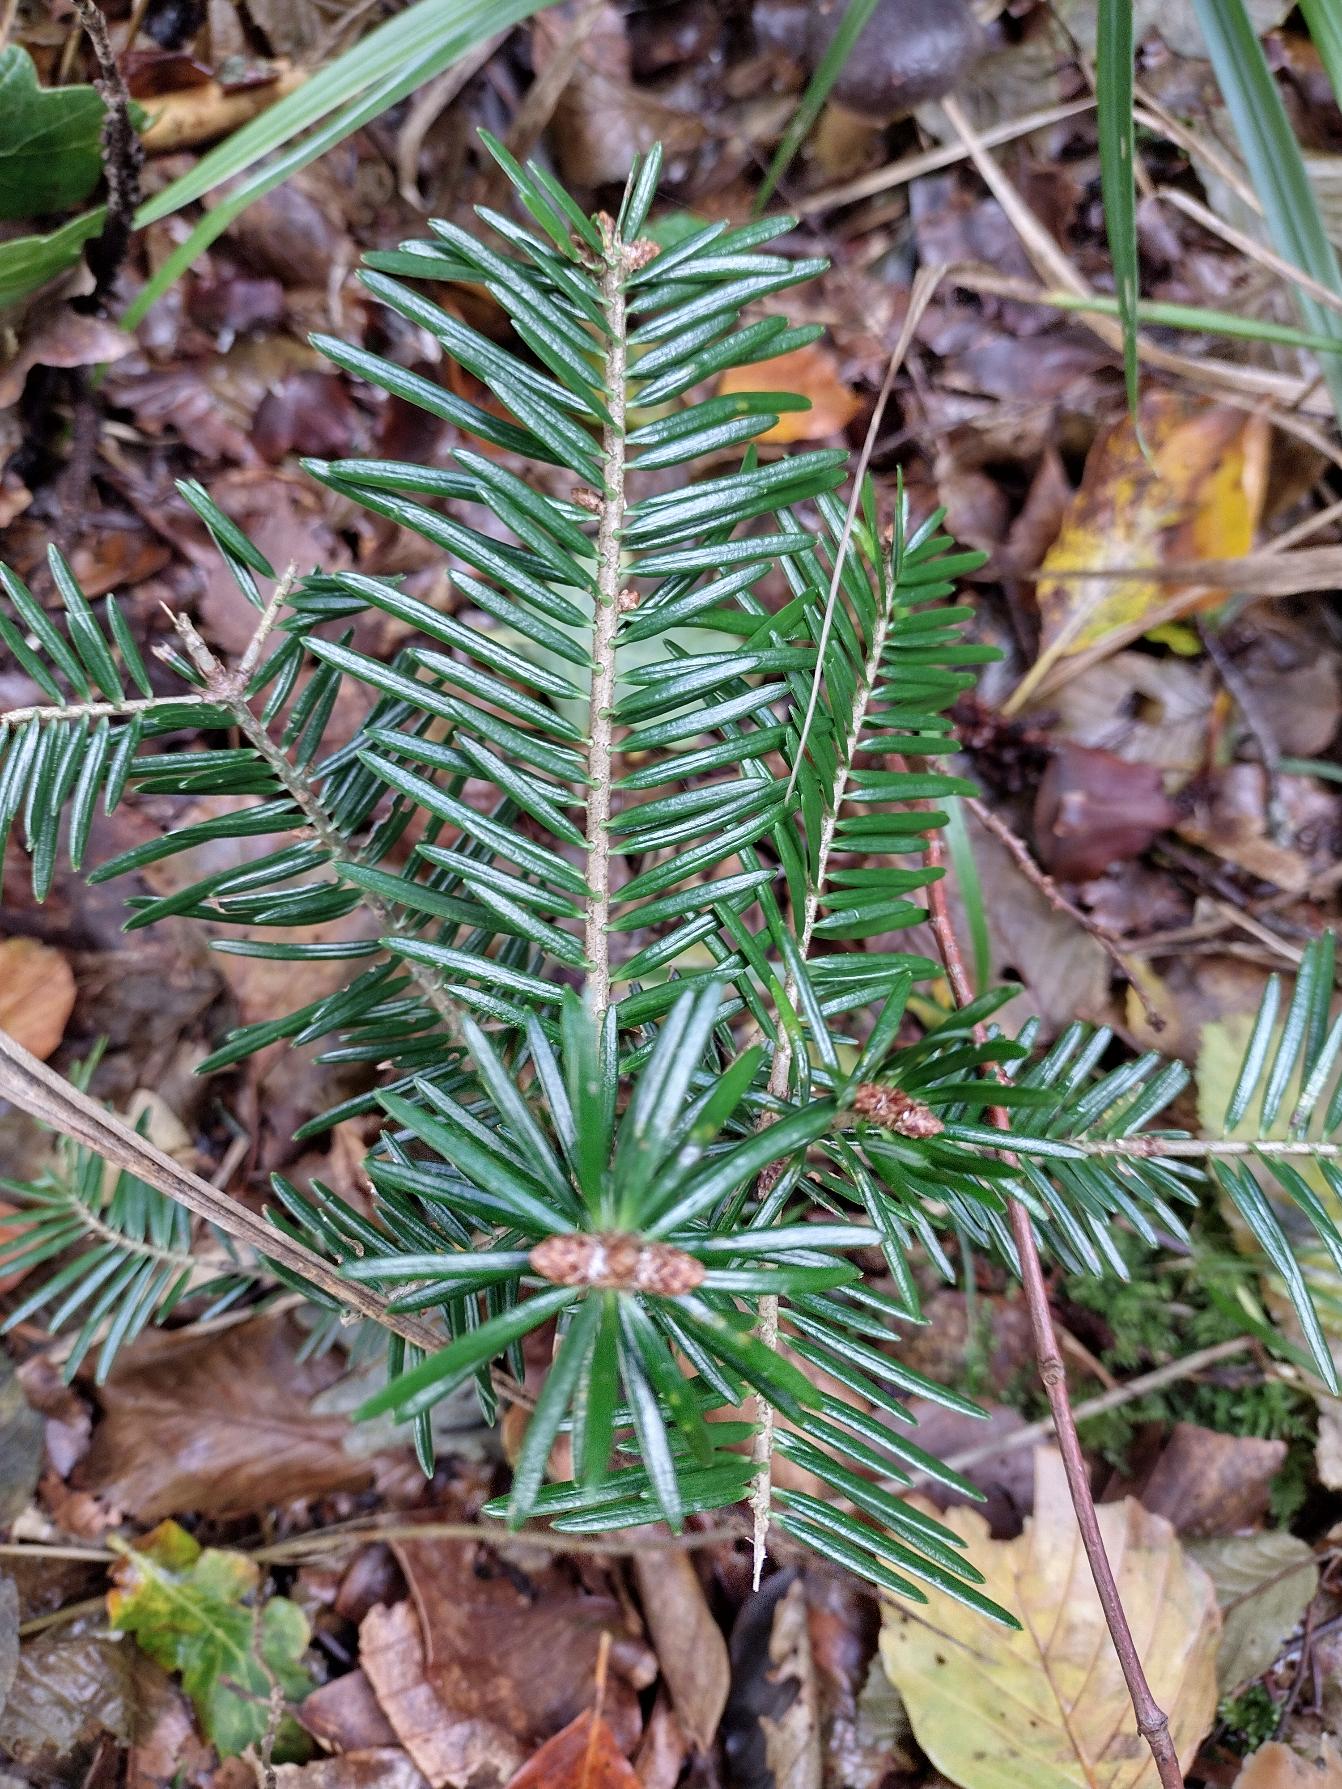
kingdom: Plantae
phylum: Tracheophyta
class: Pinopsida
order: Pinales
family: Pinaceae
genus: Abies
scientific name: Abies alba
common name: Almindelig ædelgran
